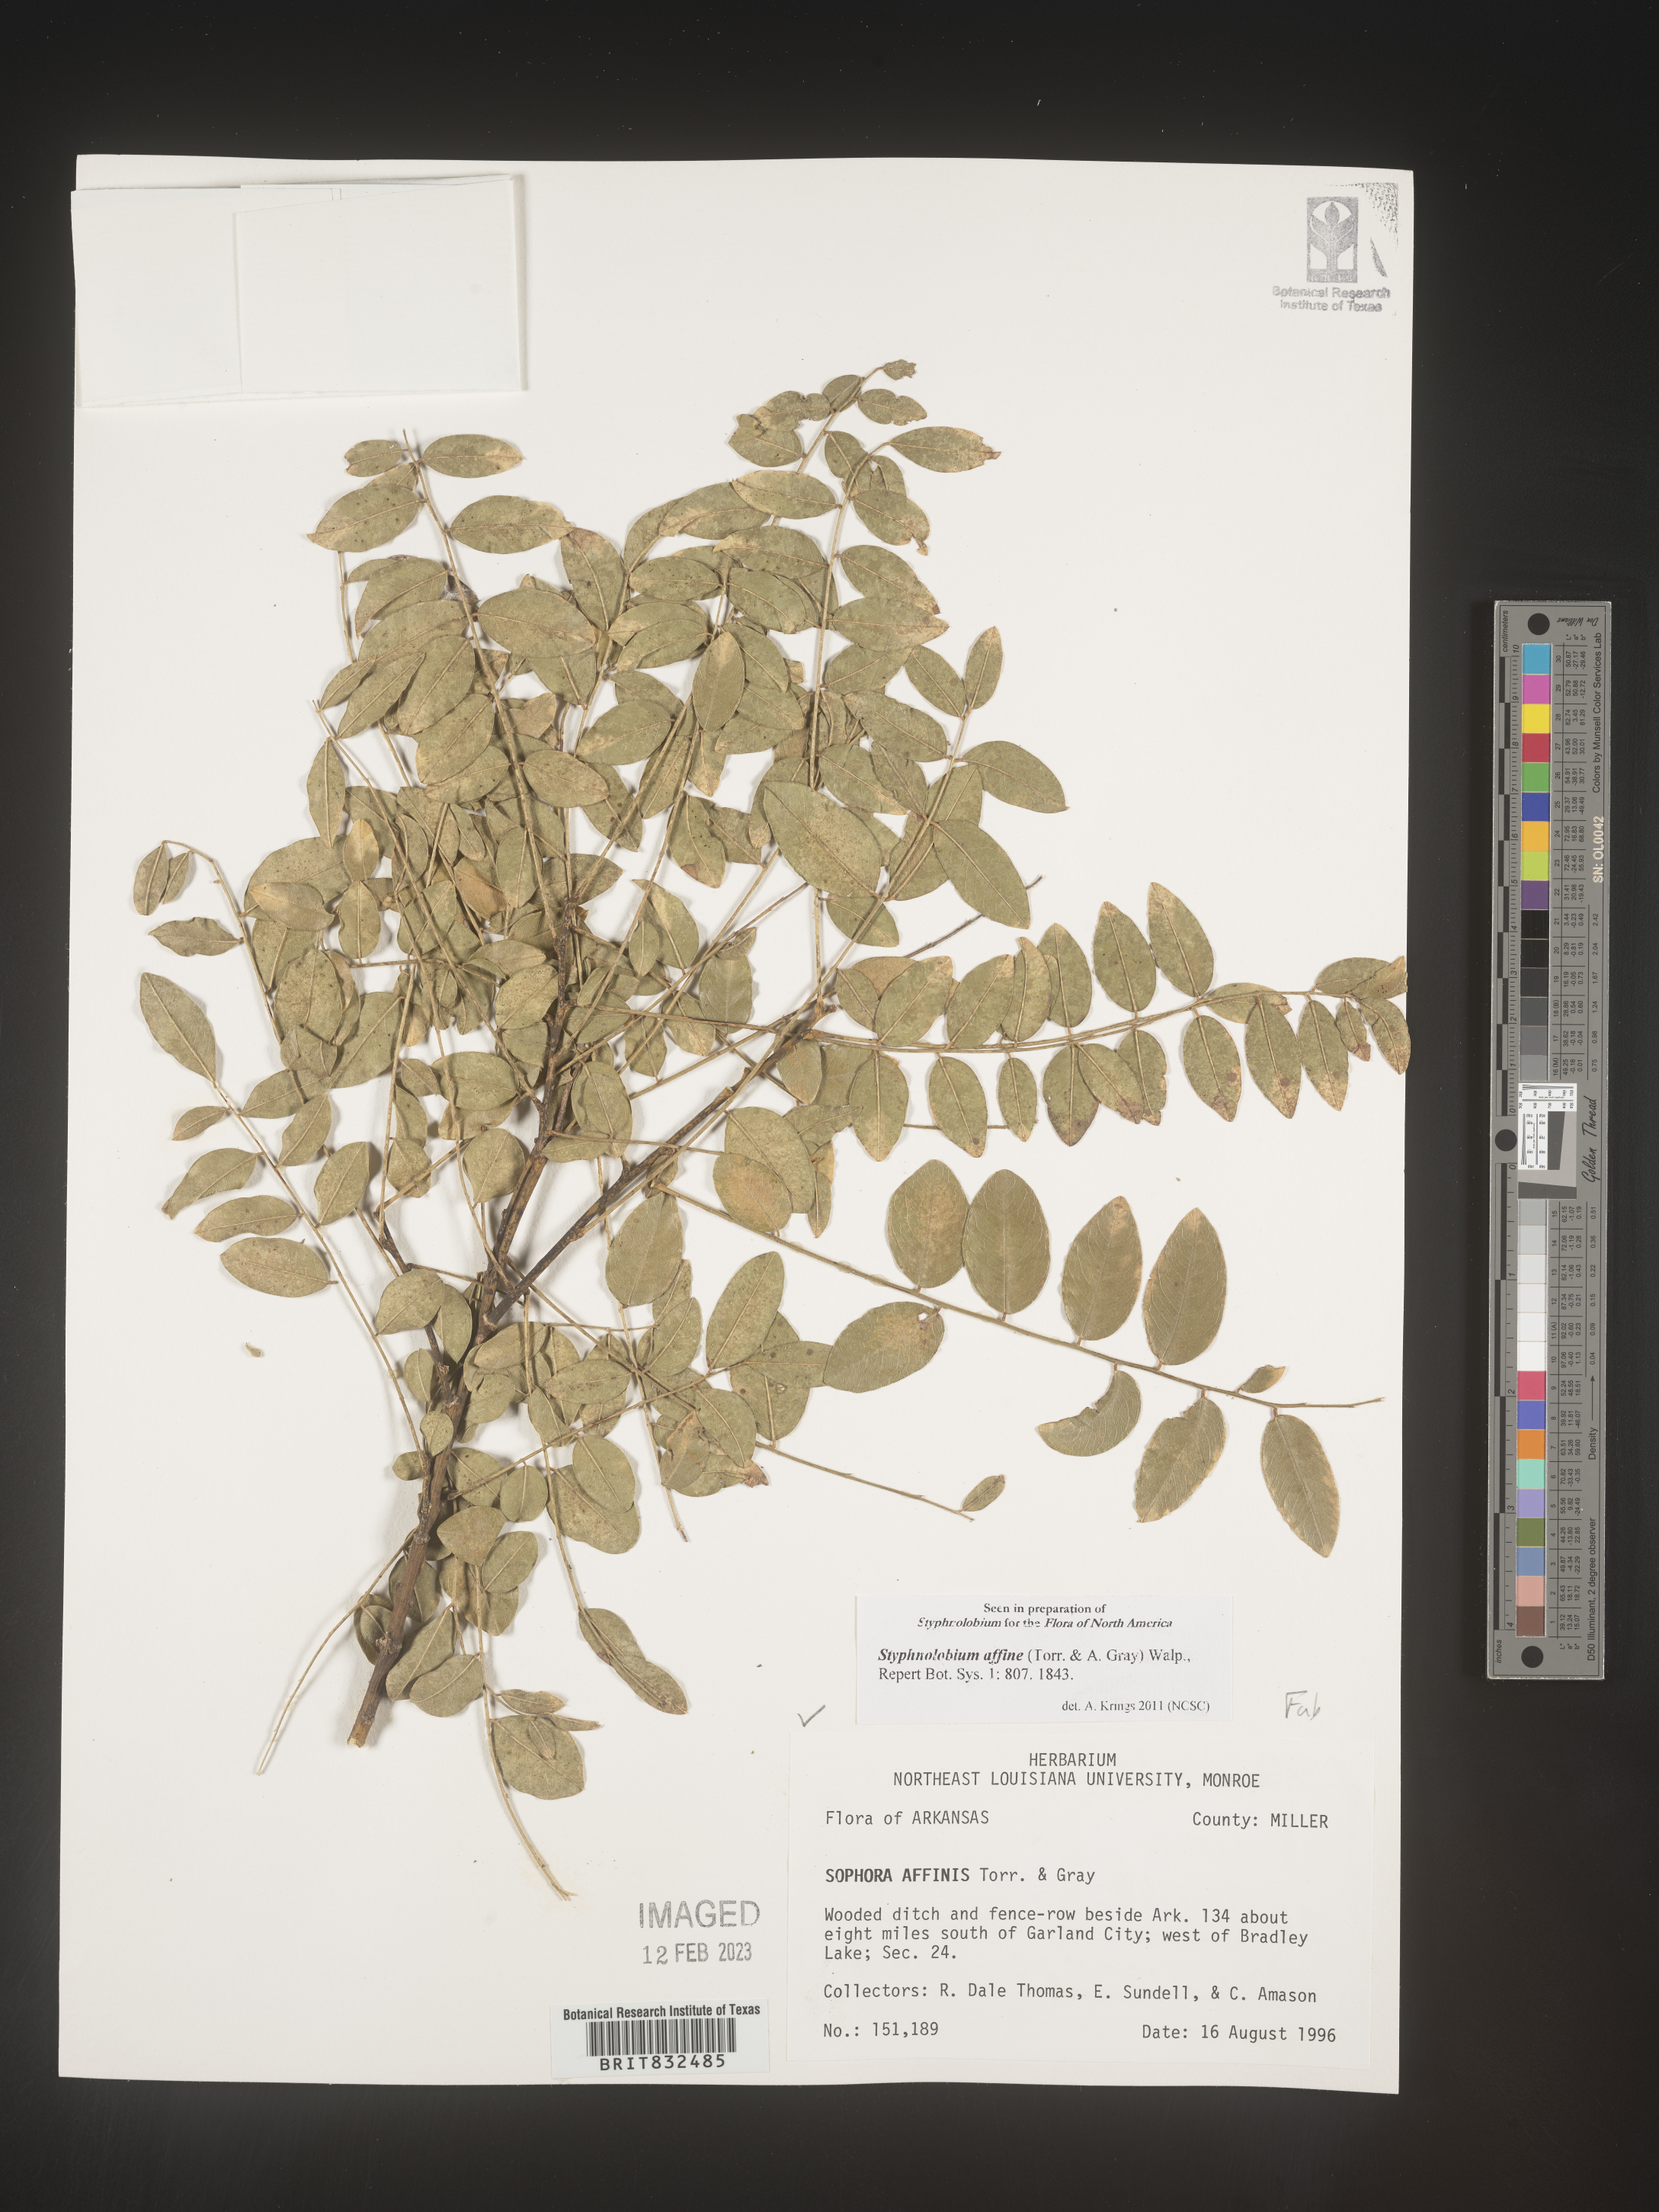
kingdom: Plantae
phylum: Tracheophyta
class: Magnoliopsida
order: Fabales
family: Fabaceae
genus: Styphnolobium
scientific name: Styphnolobium
